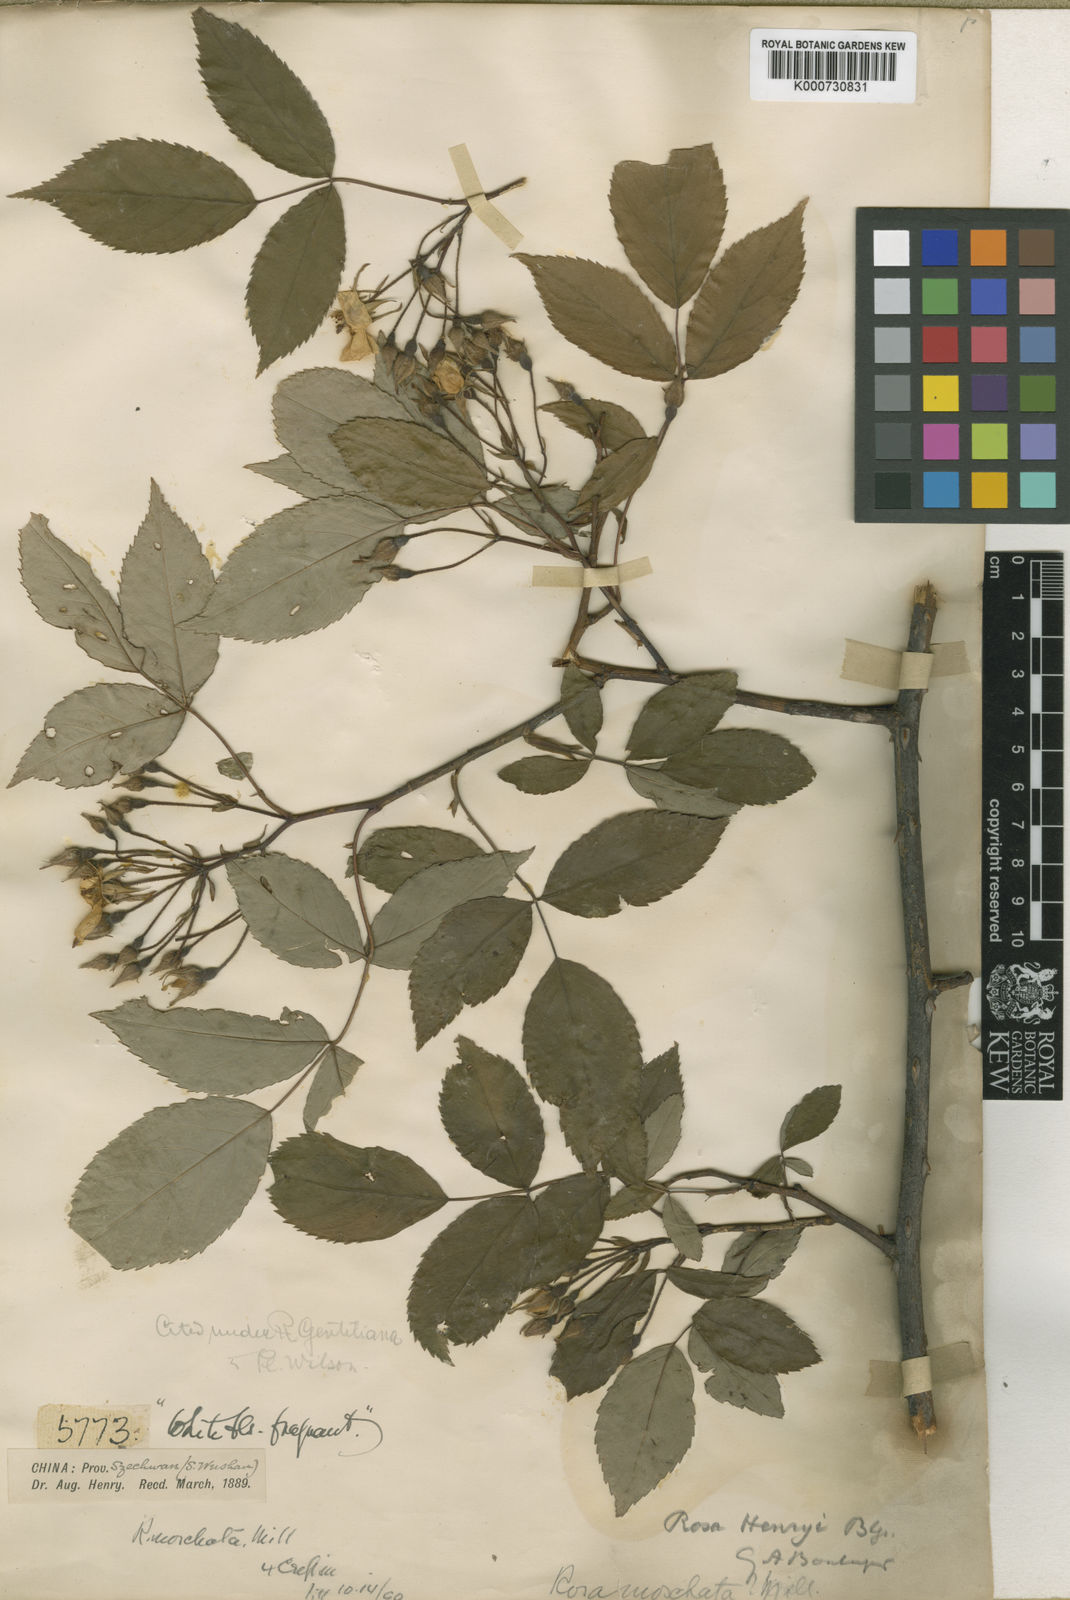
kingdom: Plantae
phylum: Tracheophyta
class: Magnoliopsida
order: Rosales
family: Rosaceae
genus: Rosa
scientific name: Rosa henryi
